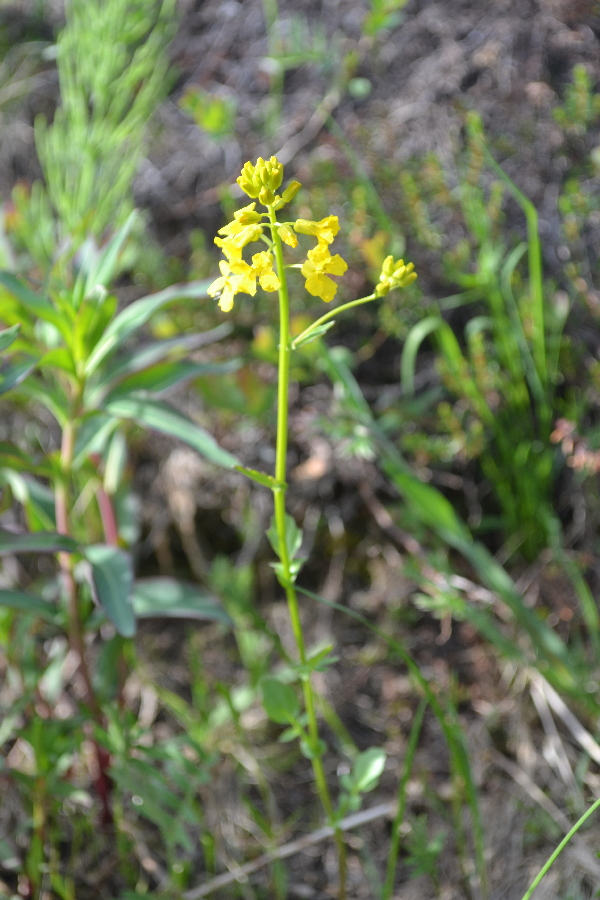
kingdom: Plantae
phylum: Tracheophyta
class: Magnoliopsida
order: Brassicales
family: Brassicaceae
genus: Barbarea
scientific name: Barbarea vulgaris
